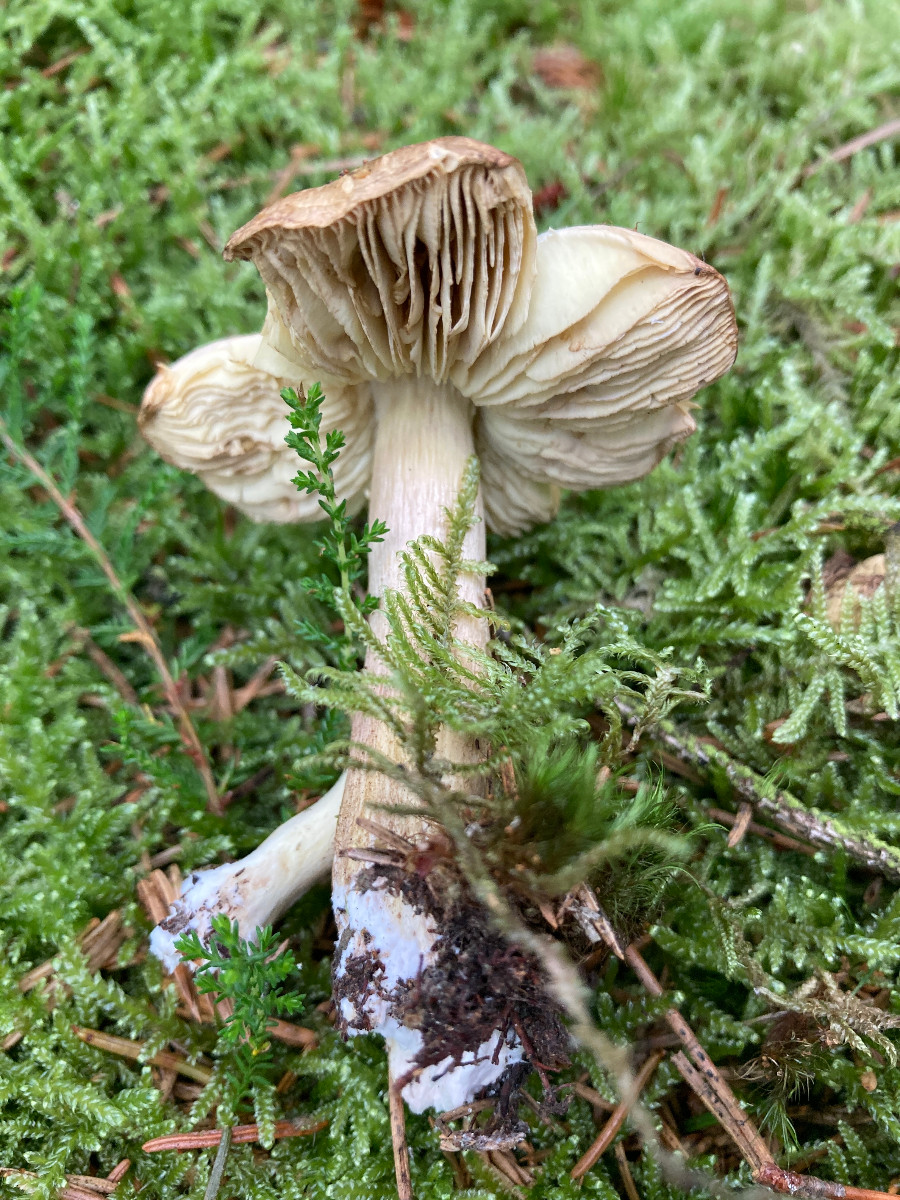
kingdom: Fungi
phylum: Basidiomycota
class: Agaricomycetes
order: Agaricales
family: Tricholomataceae
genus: Tricholoma
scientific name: Tricholoma aestuans
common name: kegle-ridderhat
